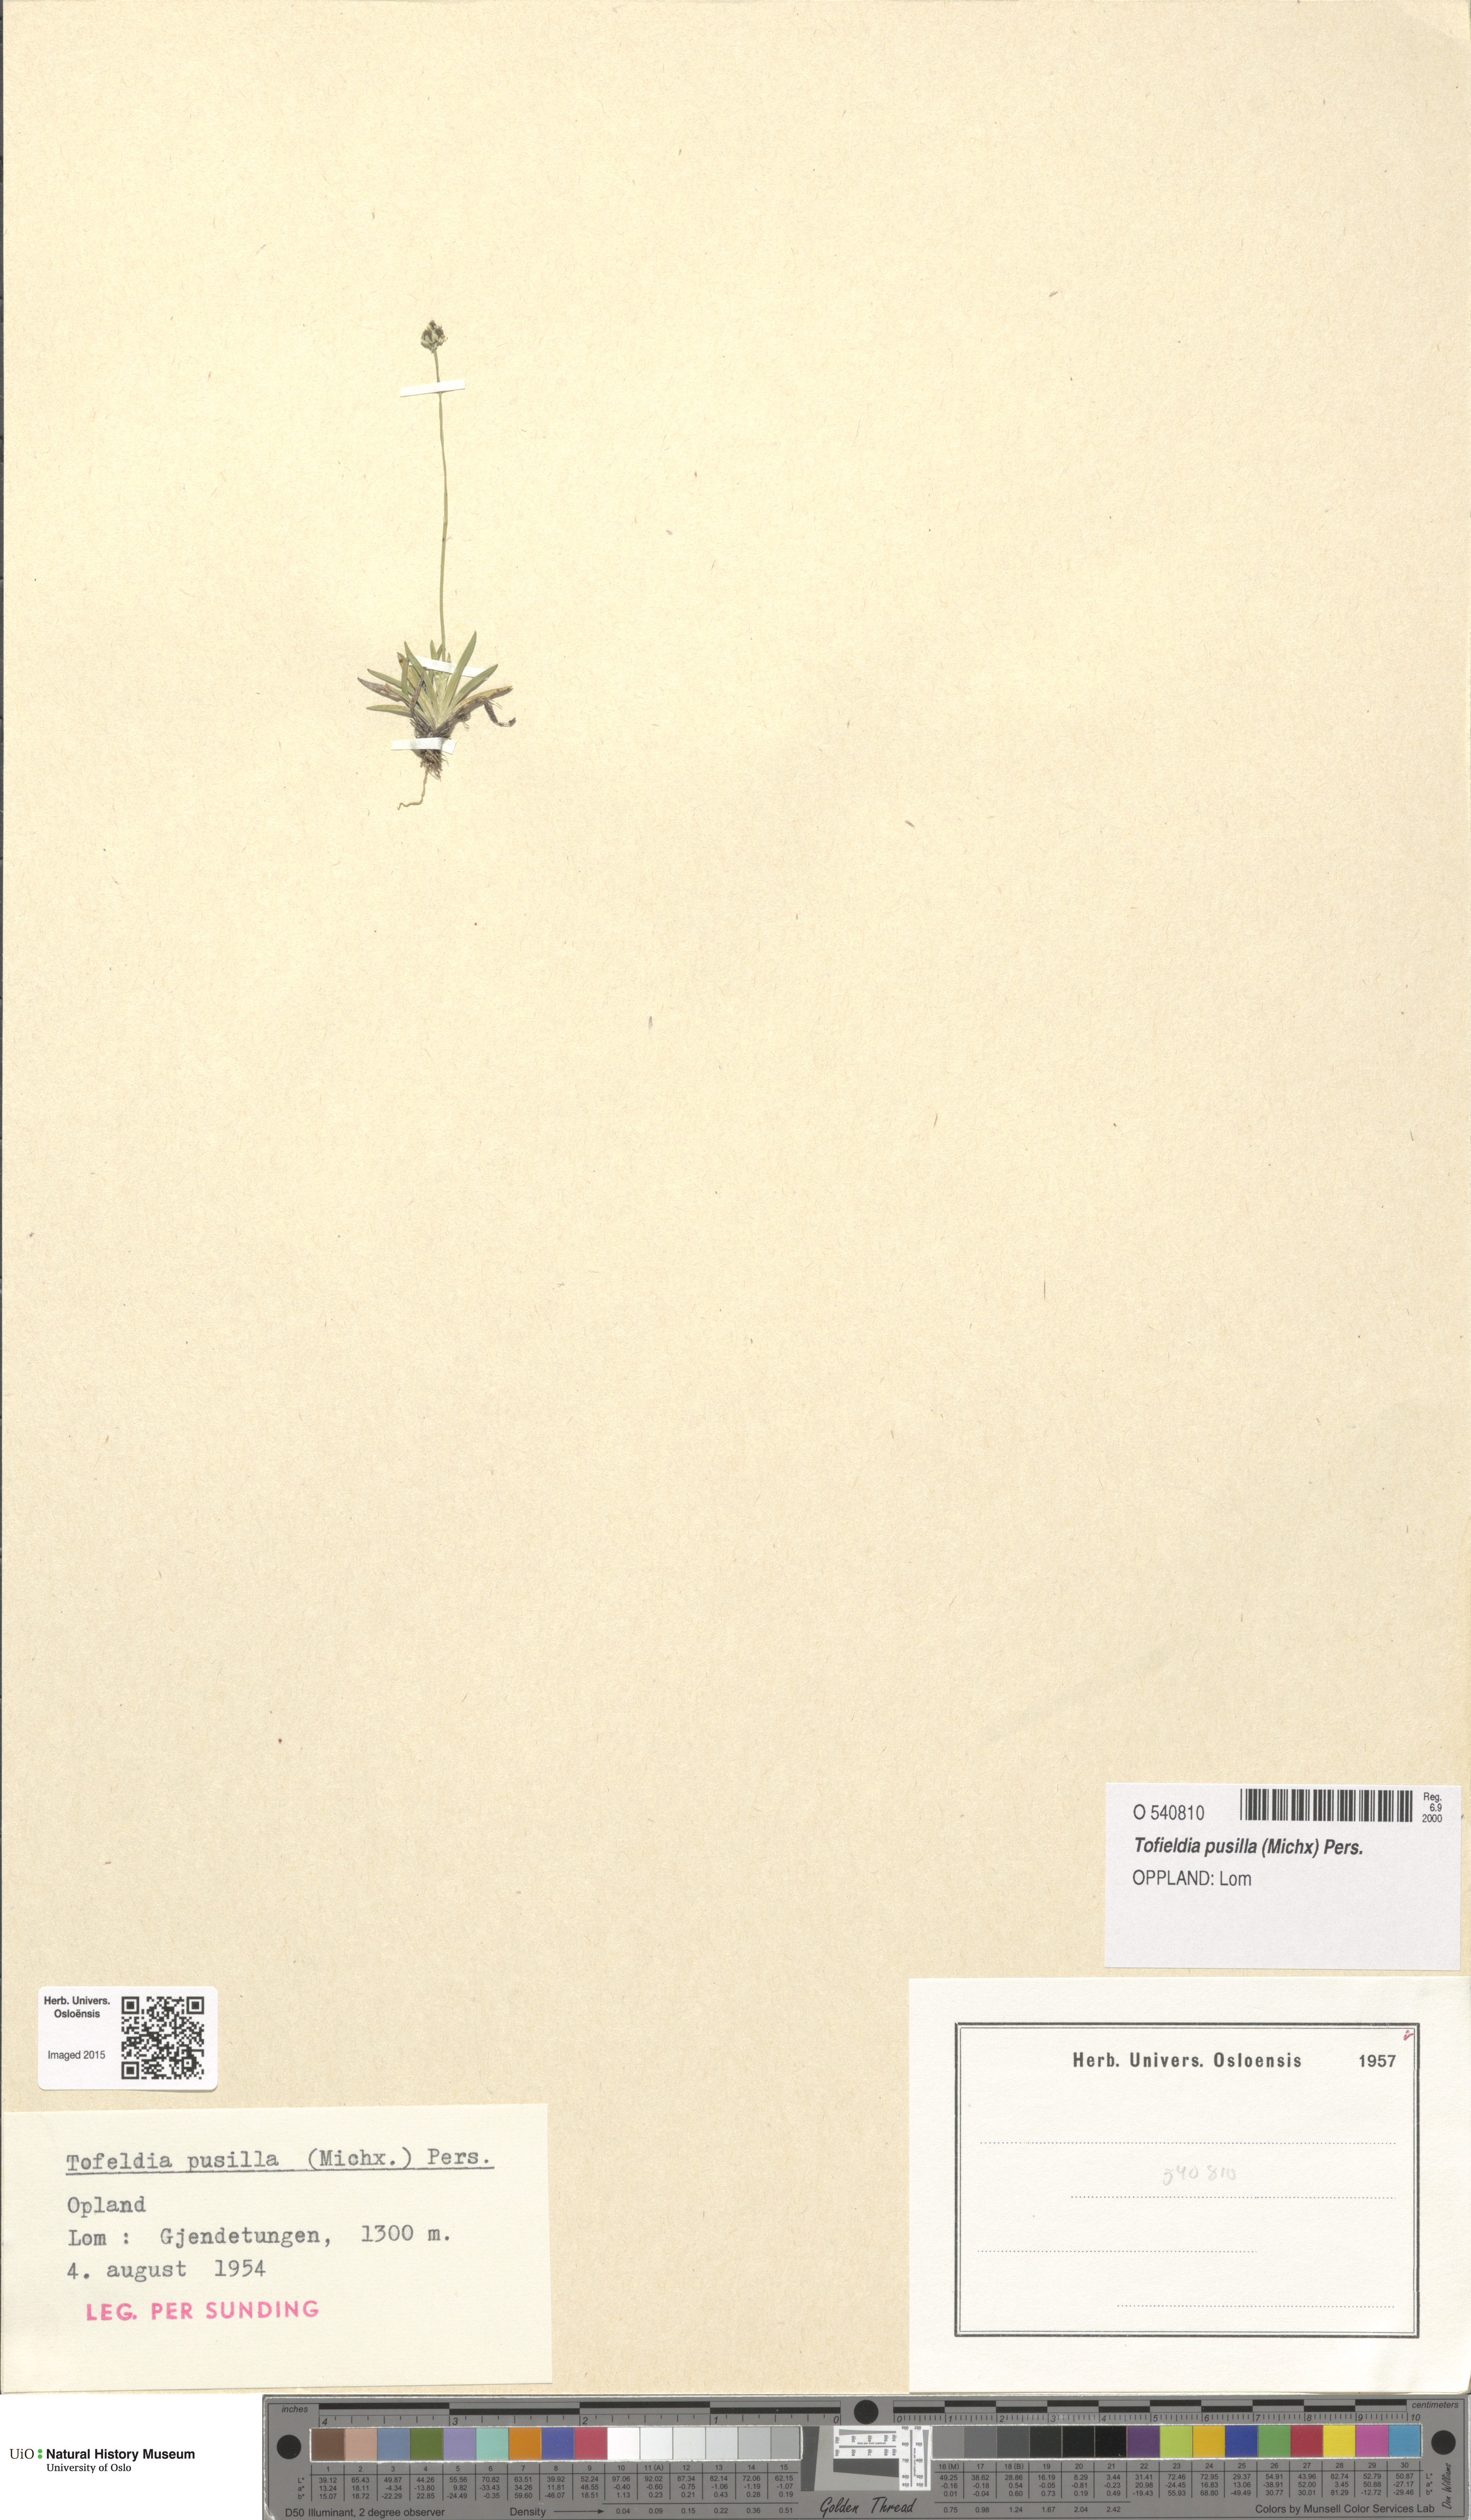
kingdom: Plantae
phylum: Tracheophyta
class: Liliopsida
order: Alismatales
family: Tofieldiaceae
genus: Tofieldia
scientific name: Tofieldia pusilla
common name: Scottish false asphodel
